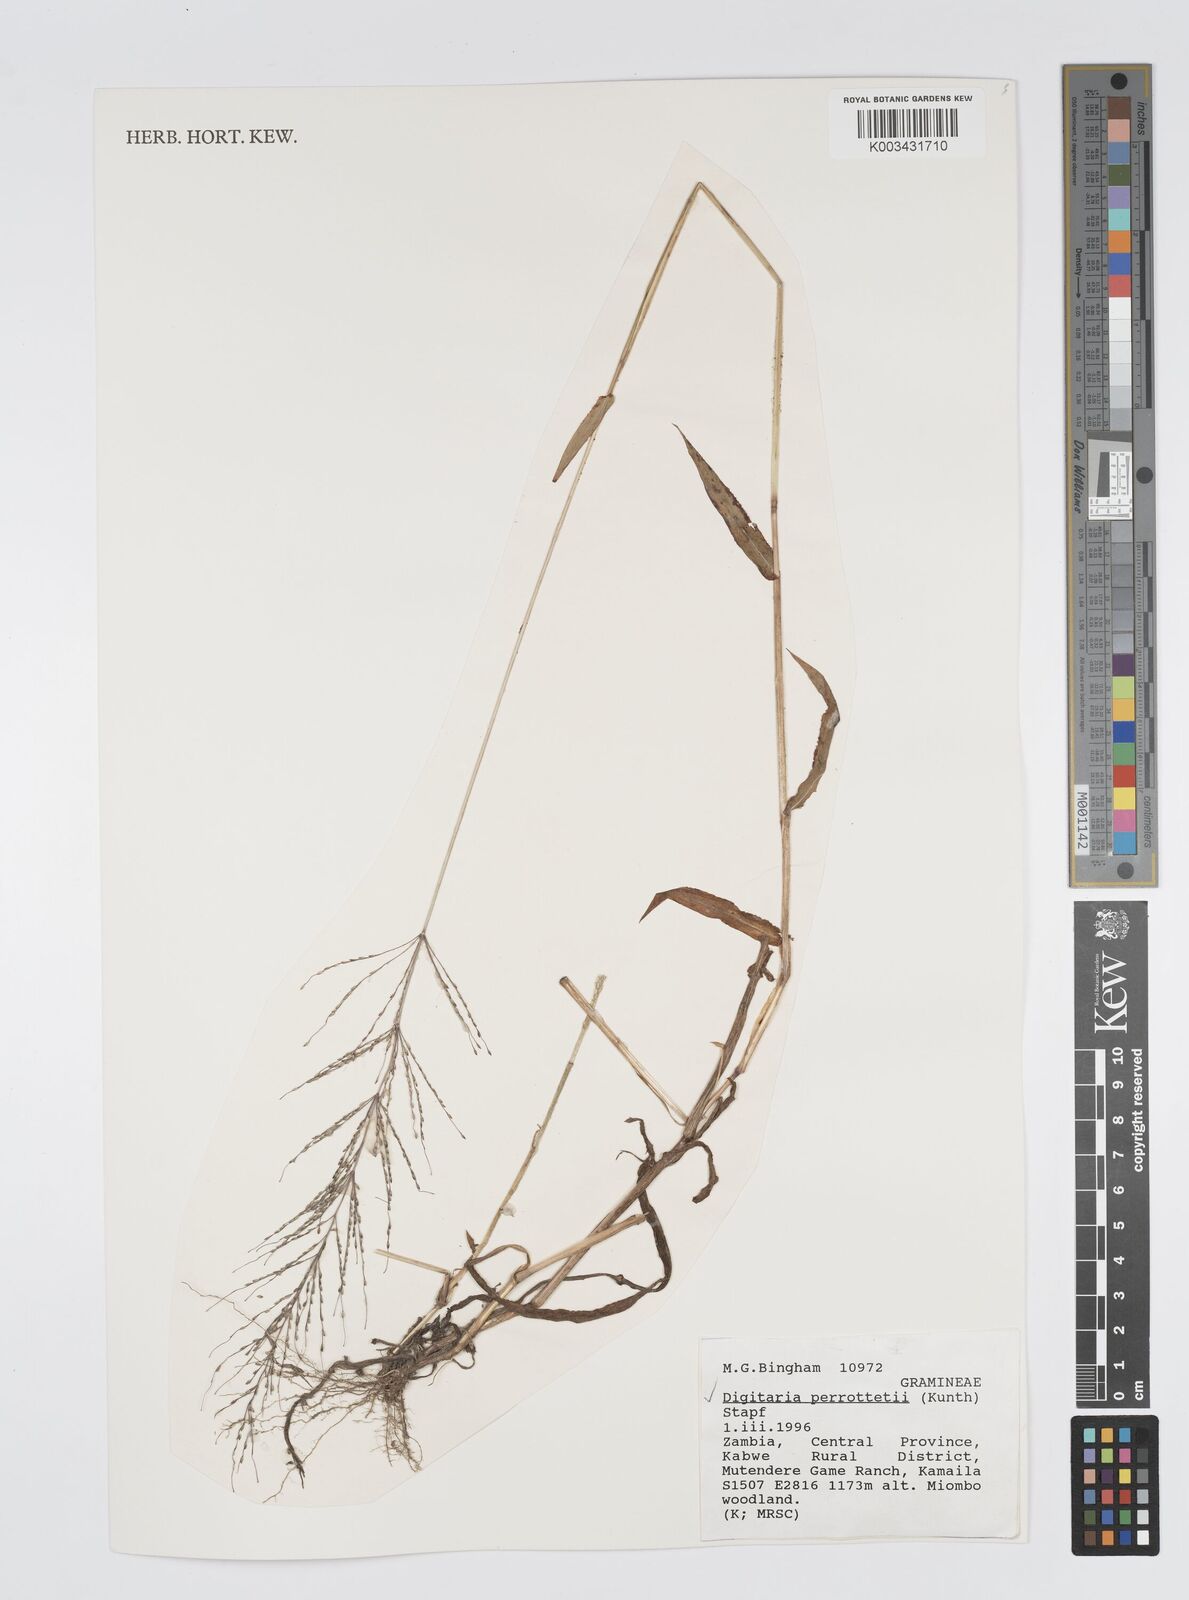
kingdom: Plantae
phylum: Tracheophyta
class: Liliopsida
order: Poales
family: Poaceae
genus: Digitaria
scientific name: Digitaria perrottetii
